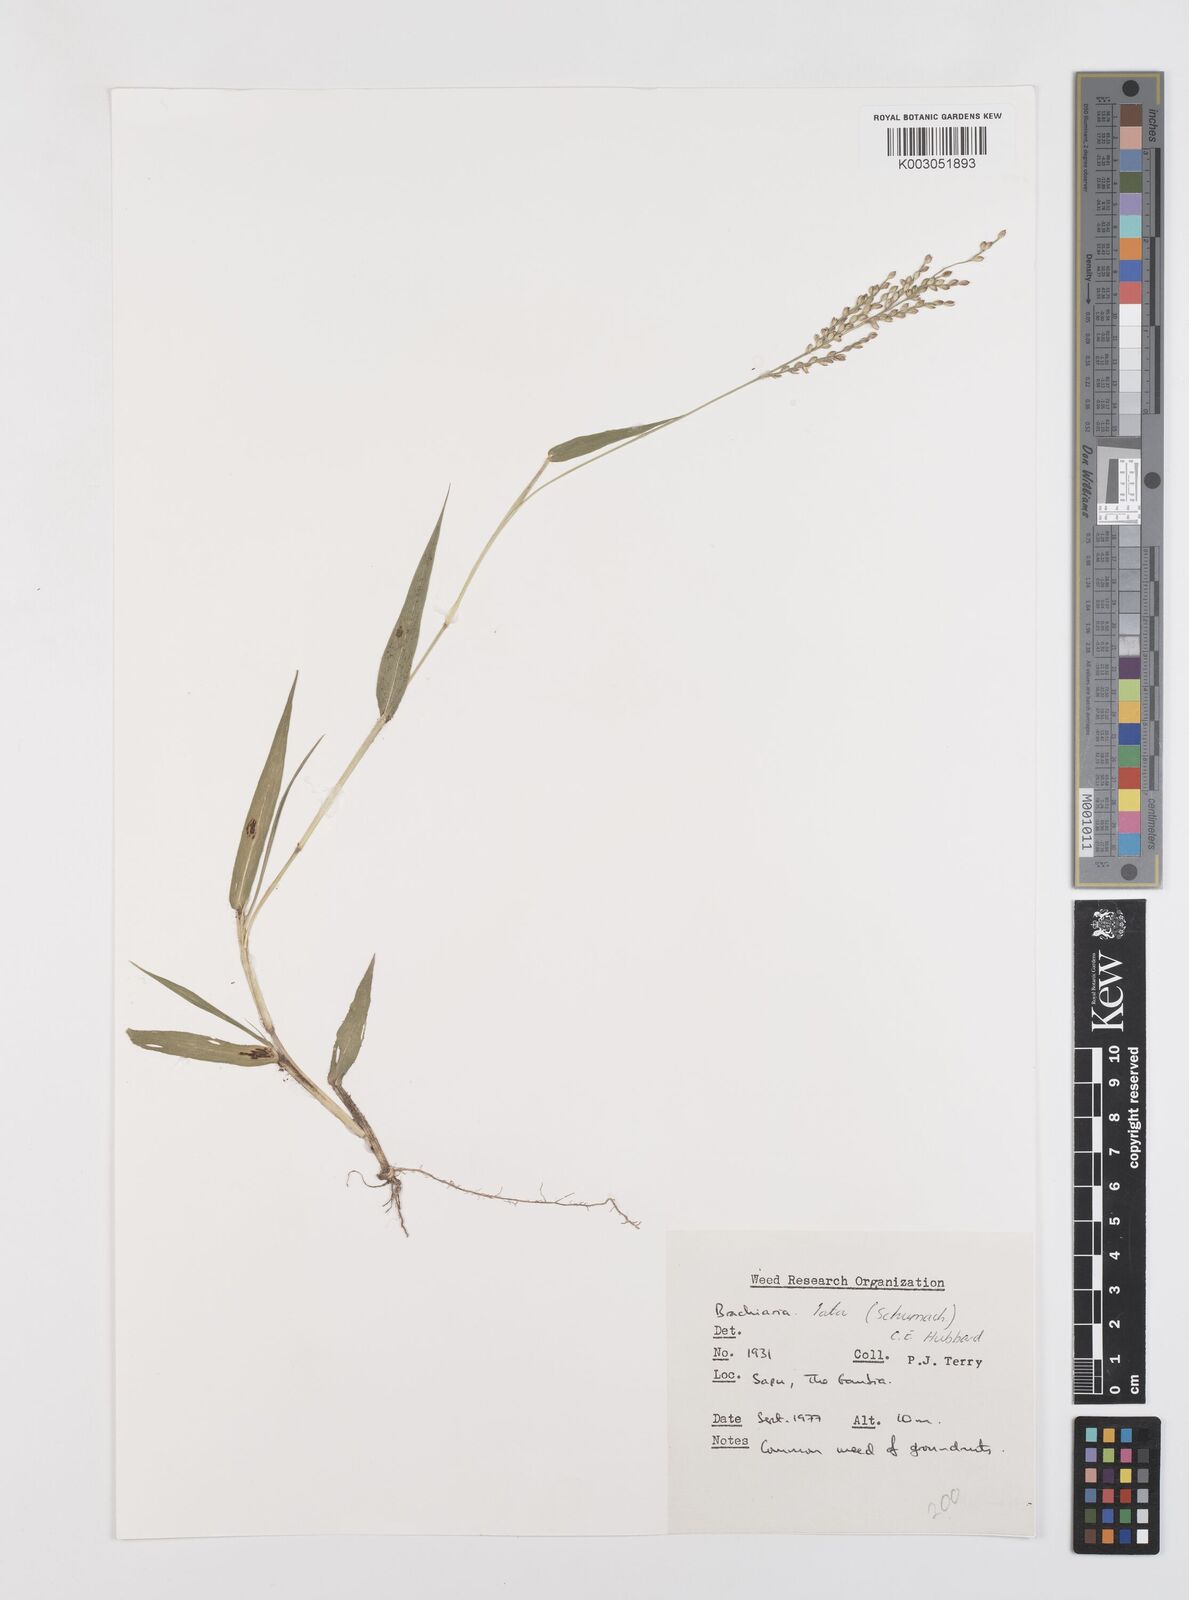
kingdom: Plantae
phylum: Tracheophyta
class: Liliopsida
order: Poales
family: Poaceae
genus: Urochloa
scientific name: Urochloa lata
